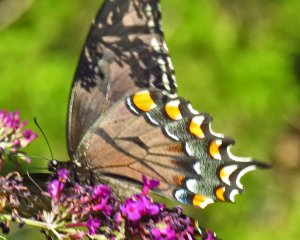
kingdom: Animalia
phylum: Arthropoda
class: Insecta
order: Lepidoptera
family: Papilionidae
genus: Pterourus
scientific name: Pterourus glaucus
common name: Eastern Tiger Swallowtail
